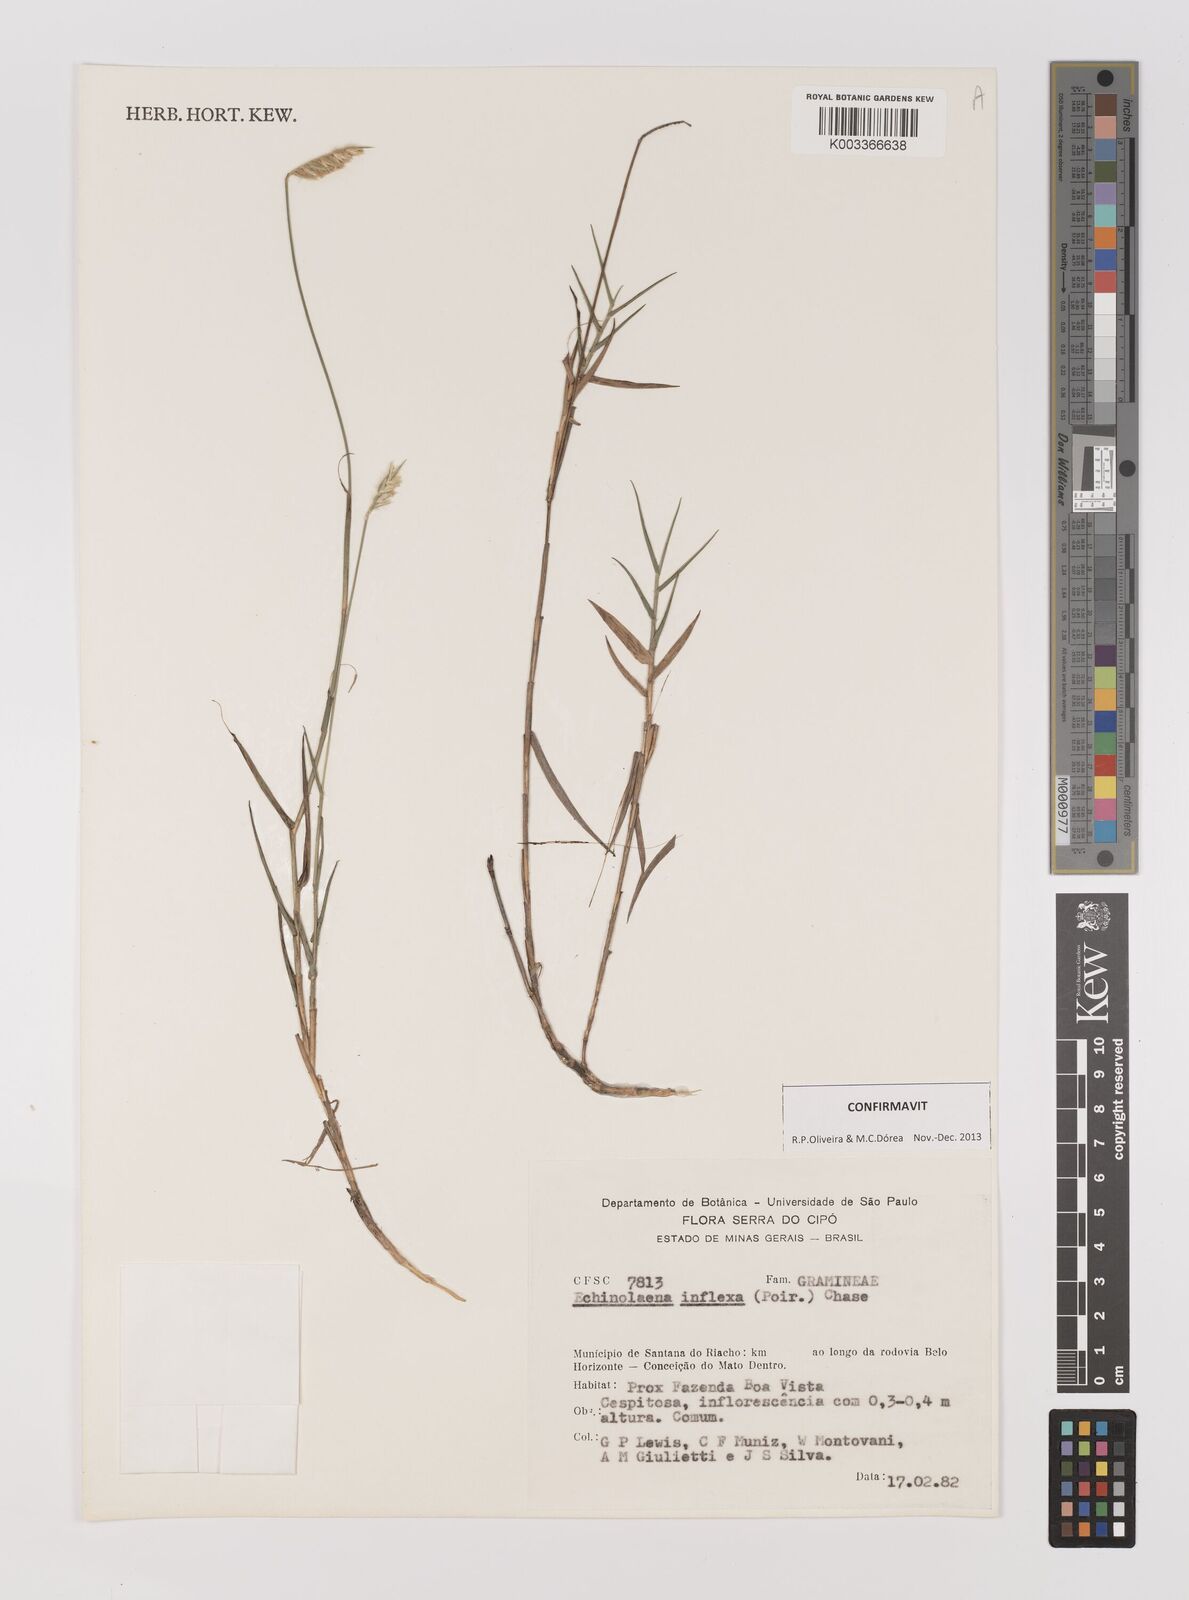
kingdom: Plantae
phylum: Tracheophyta
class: Liliopsida
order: Poales
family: Poaceae
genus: Echinolaena
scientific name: Echinolaena inflexa
